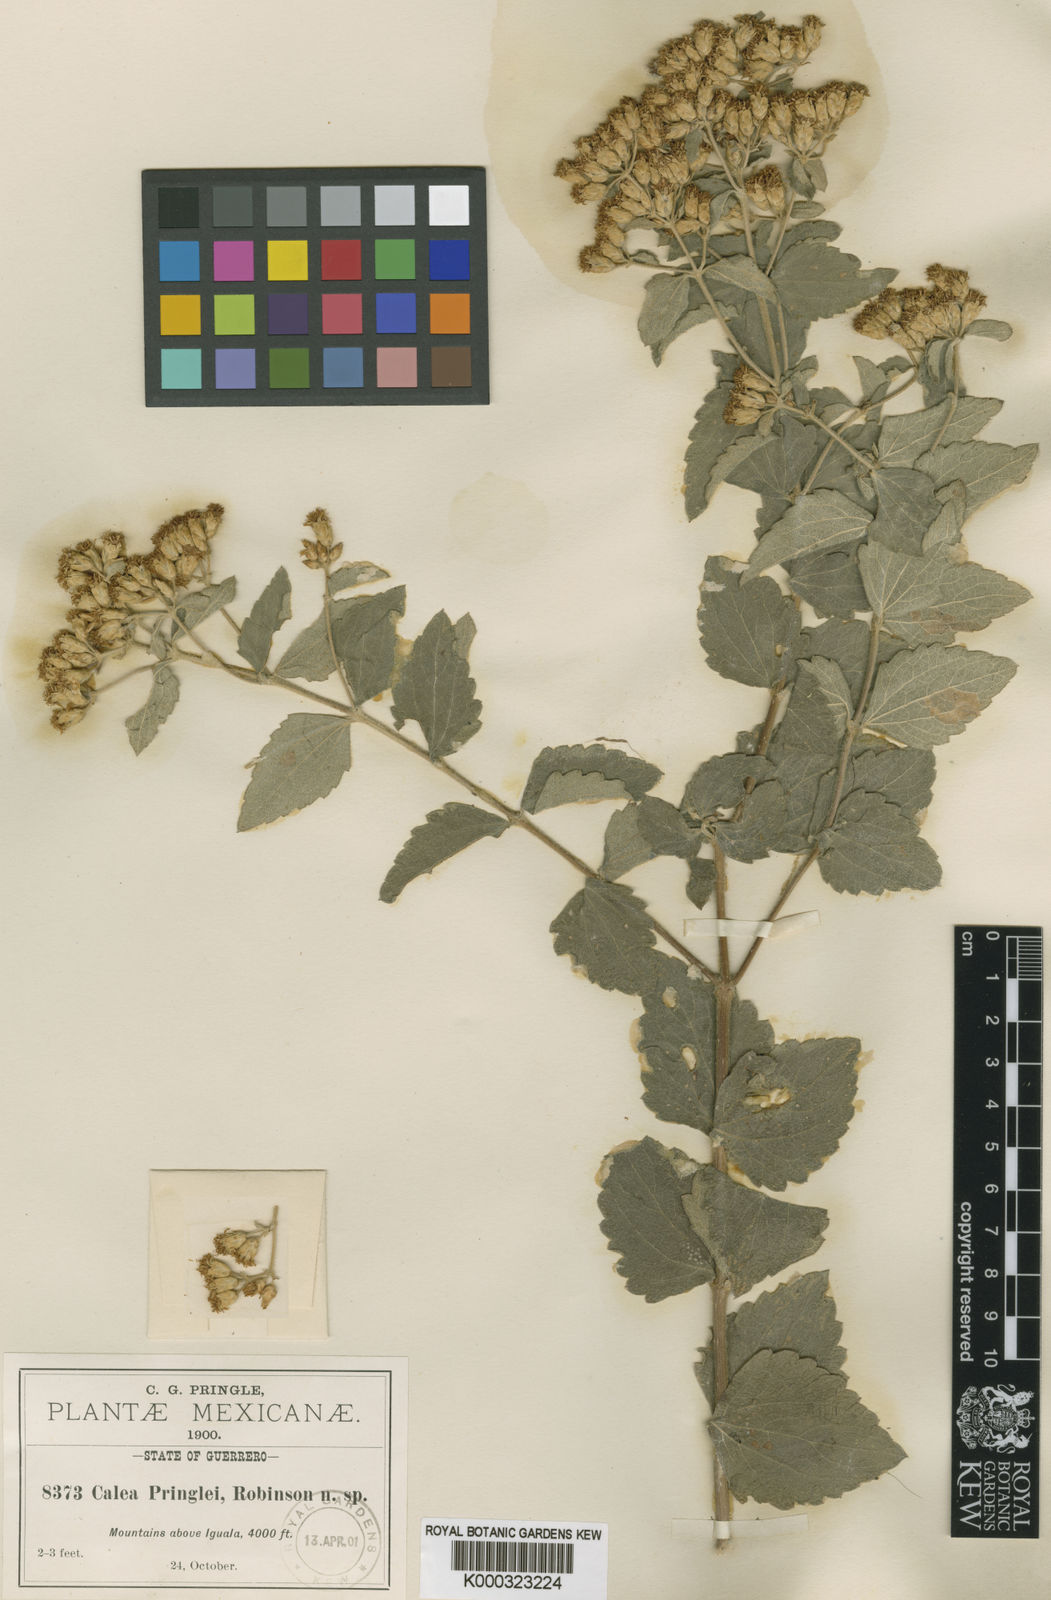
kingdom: Plantae
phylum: Tracheophyta
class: Magnoliopsida
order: Asterales
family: Asteraceae
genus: Calea
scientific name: Calea ternifolia
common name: Mexican calea
